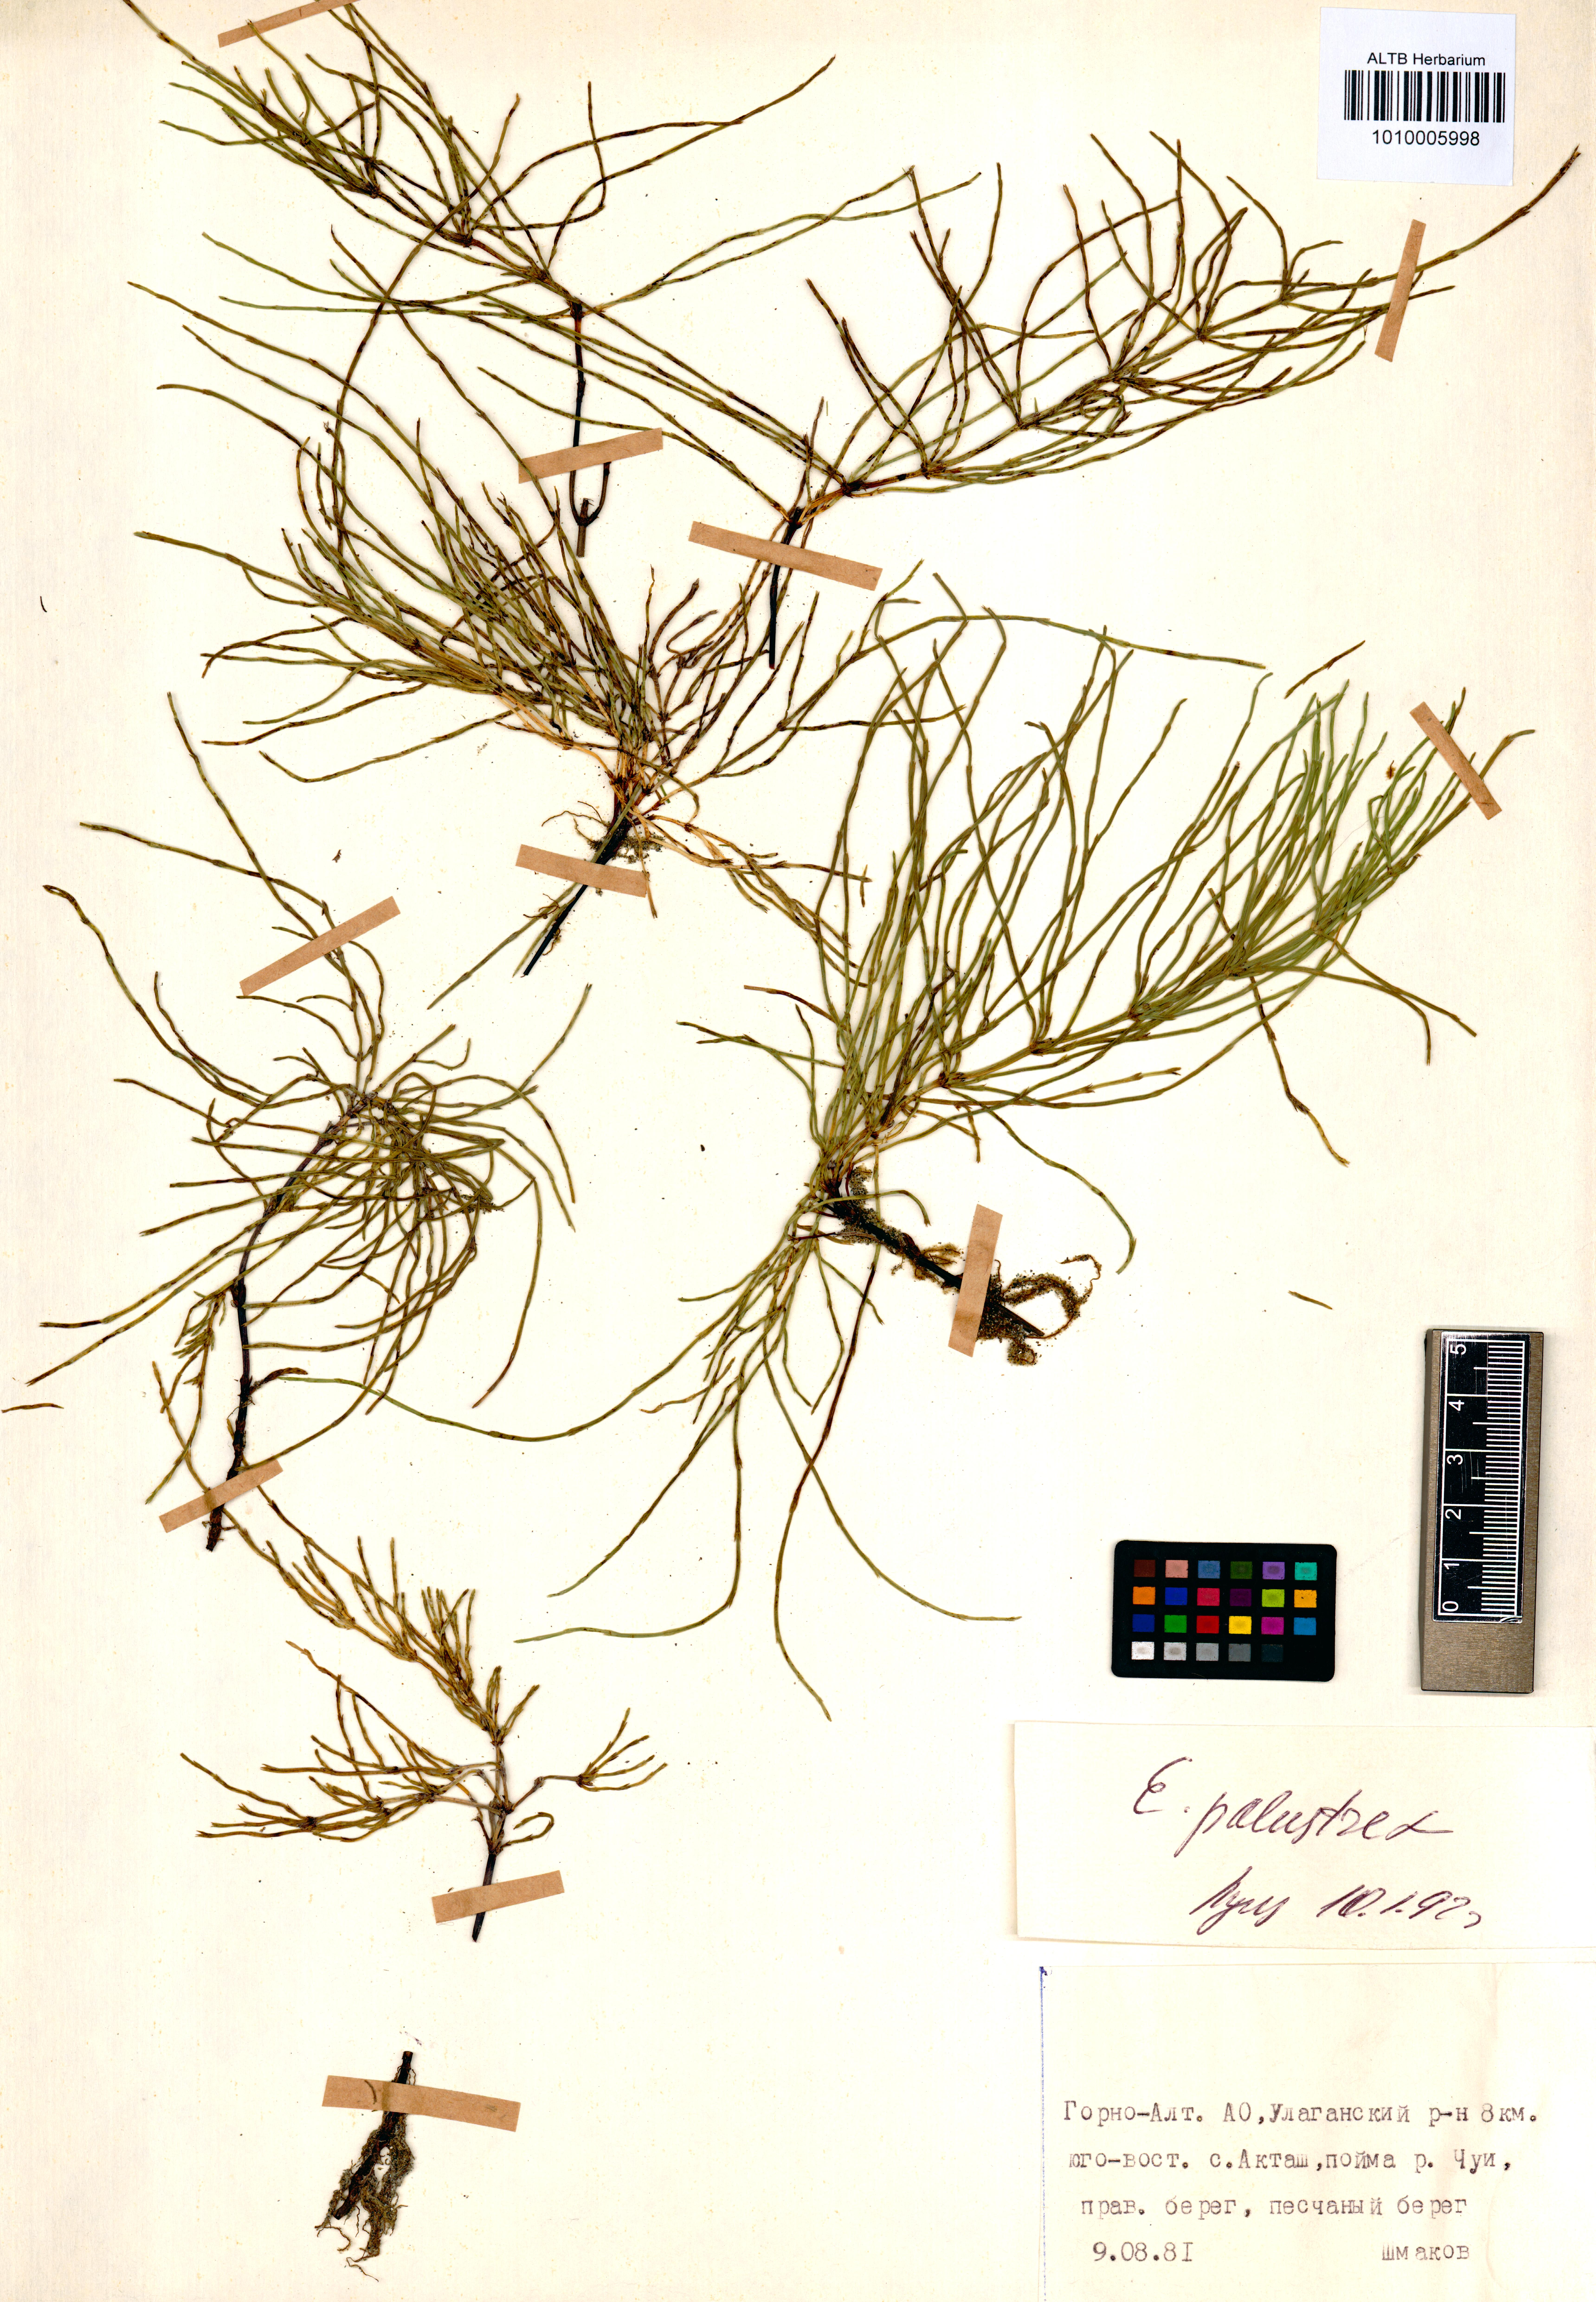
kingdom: Plantae
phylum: Tracheophyta
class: Polypodiopsida
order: Equisetales
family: Equisetaceae
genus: Equisetum
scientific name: Equisetum palustre
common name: Marsh horsetail
